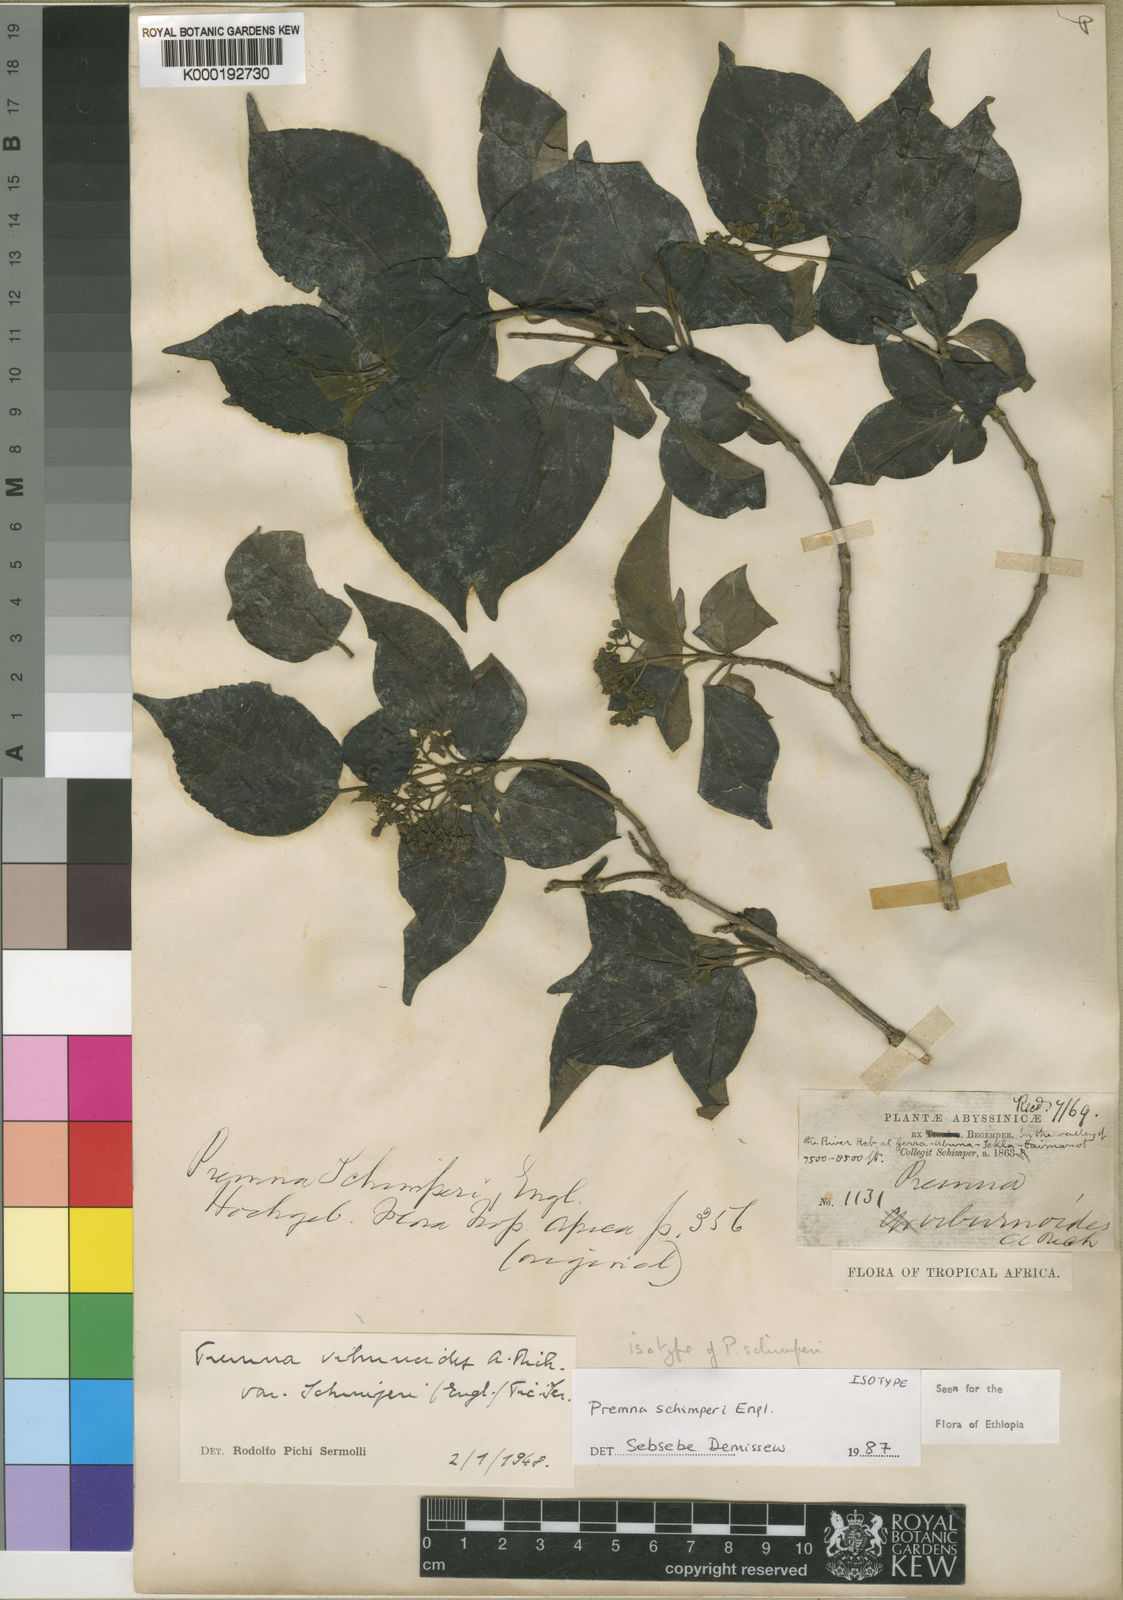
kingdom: Plantae
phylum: Tracheophyta
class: Magnoliopsida
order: Lamiales
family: Lamiaceae
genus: Premna
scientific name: Premna schimperi
